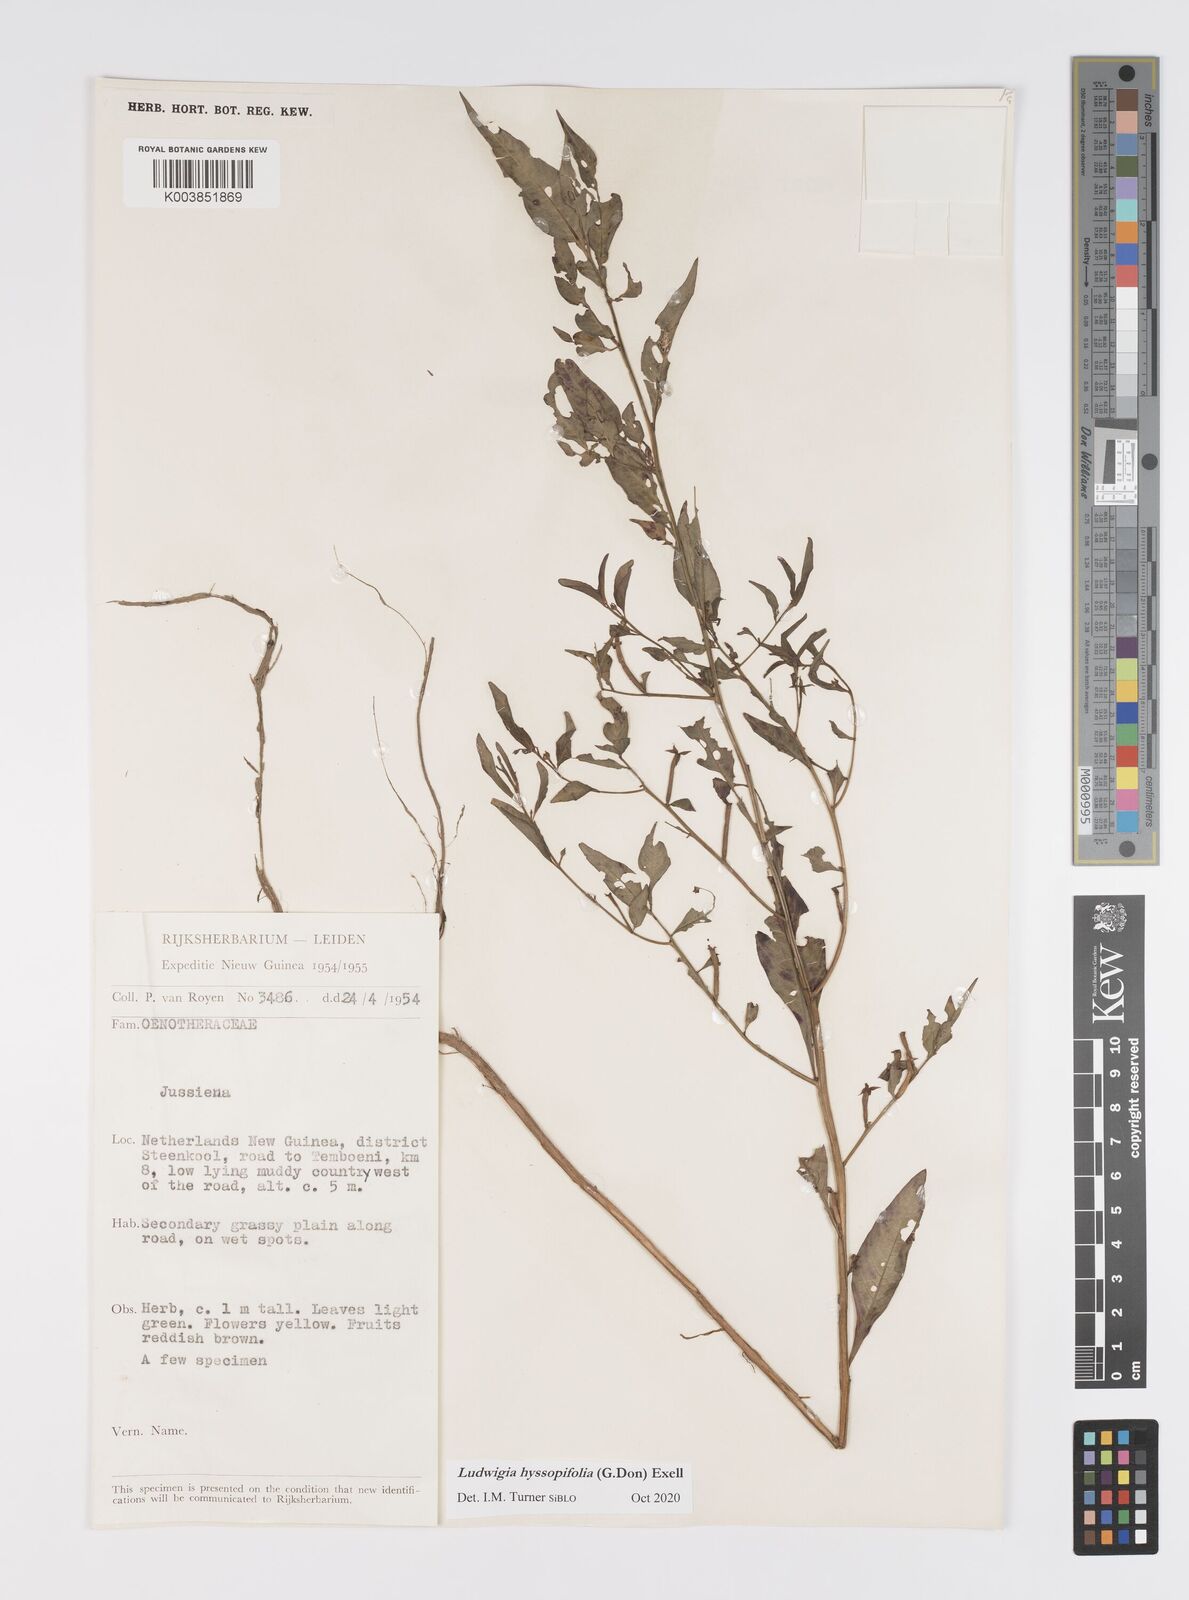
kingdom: Plantae
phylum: Tracheophyta
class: Magnoliopsida
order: Myrtales
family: Onagraceae
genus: Ludwigia
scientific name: Ludwigia hyssopifolia
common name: Linear leaf water primrose
